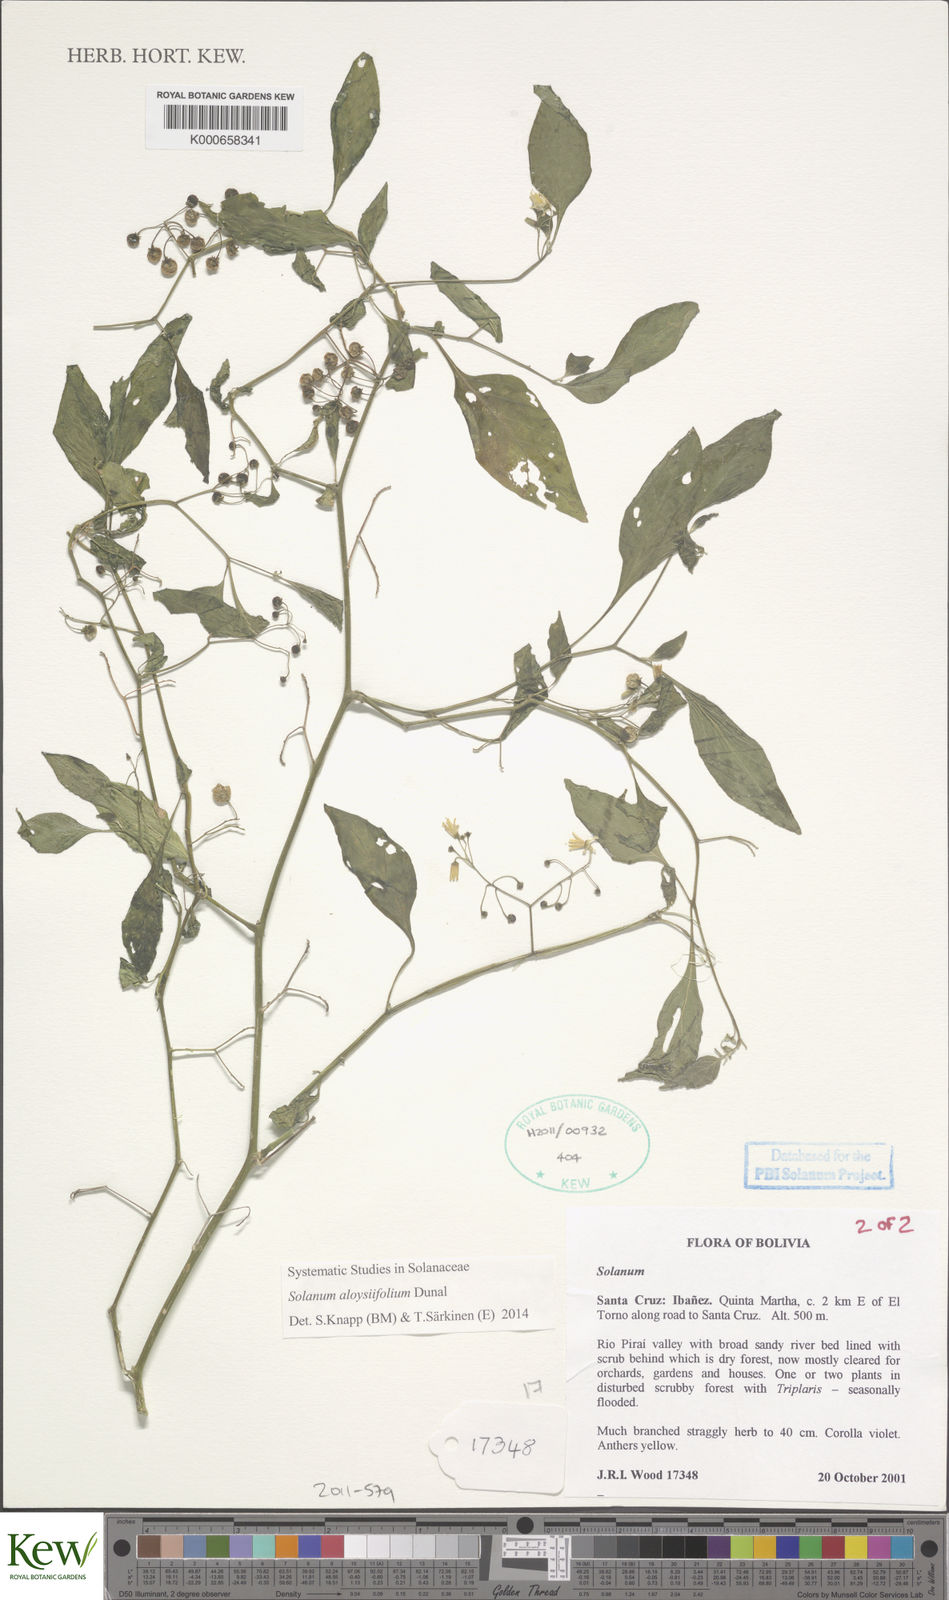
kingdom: Plantae
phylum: Tracheophyta
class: Magnoliopsida
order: Solanales
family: Solanaceae
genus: Solanum
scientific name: Solanum aloysiifolium
